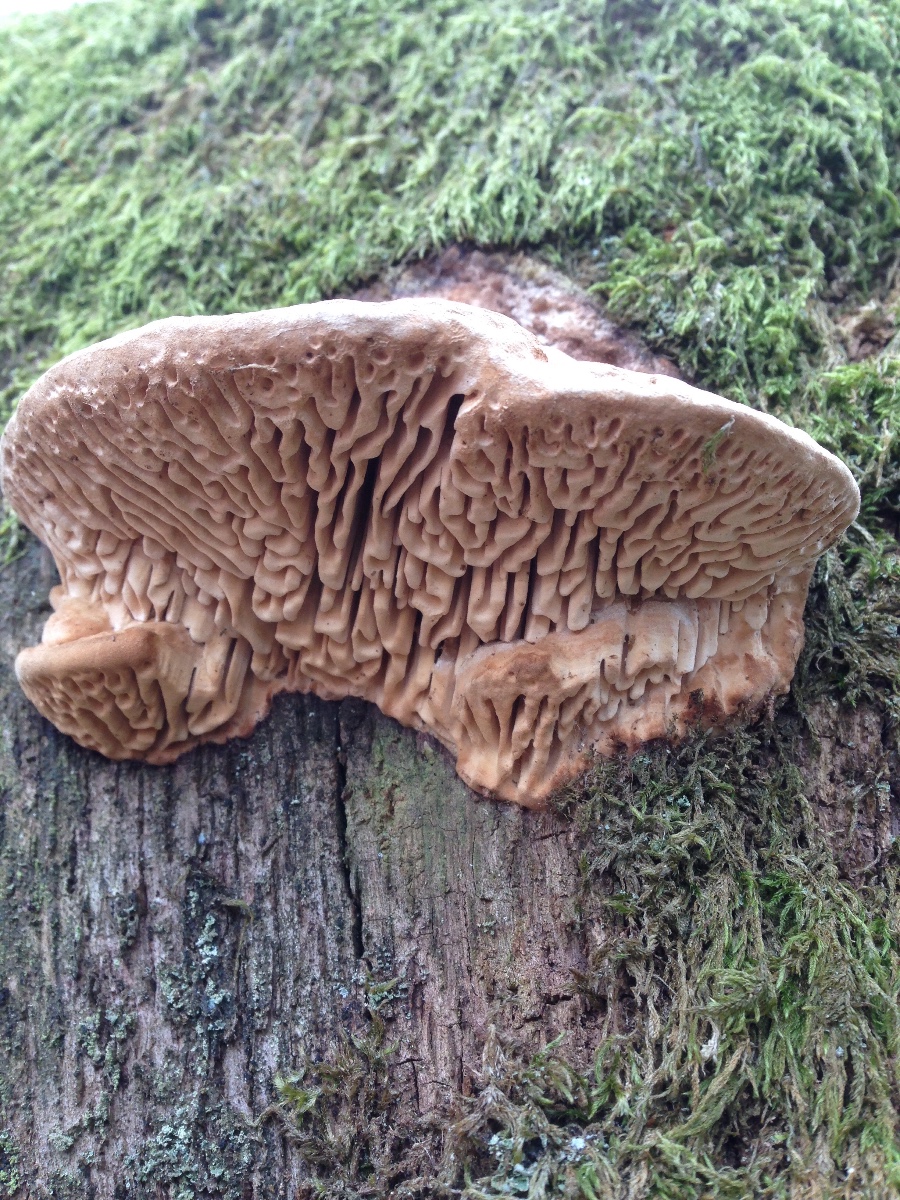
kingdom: Fungi
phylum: Basidiomycota
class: Agaricomycetes
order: Polyporales
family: Fomitopsidaceae
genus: Daedalea
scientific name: Daedalea quercina
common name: ege-labyrintsvamp
